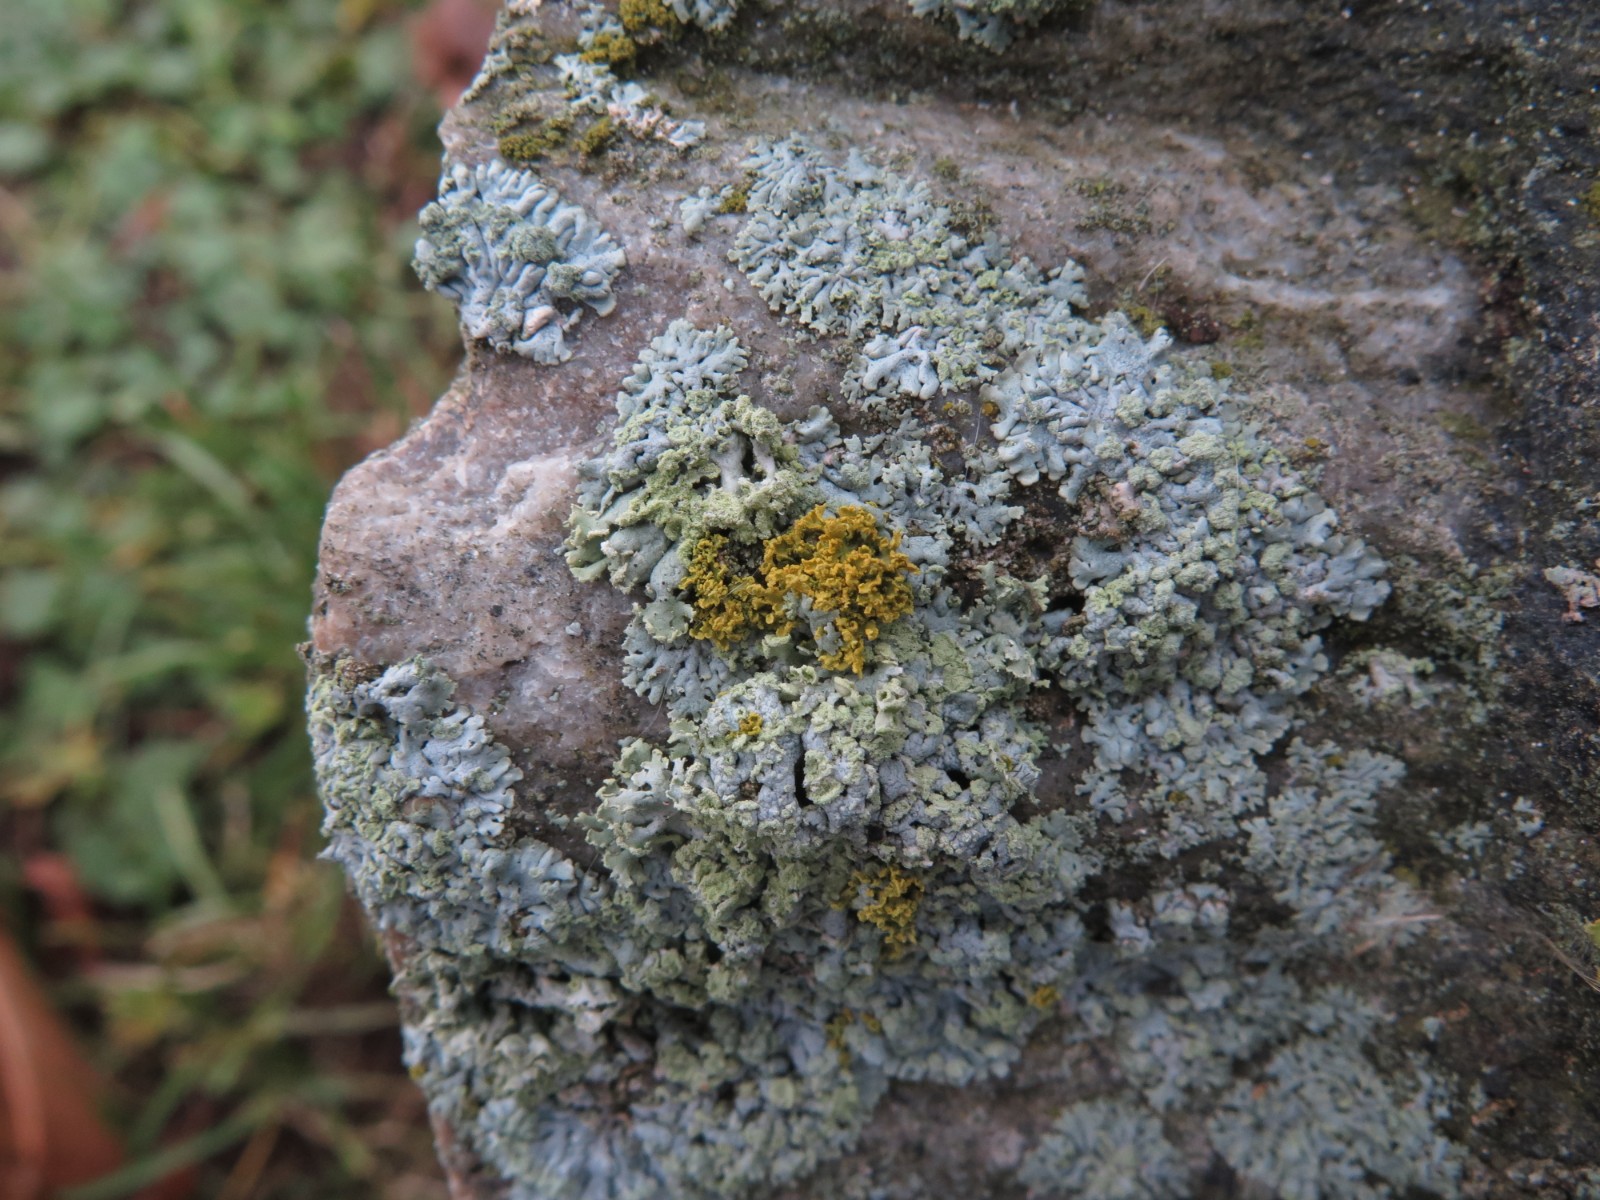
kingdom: Fungi
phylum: Ascomycota
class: Lecanoromycetes
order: Caliciales
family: Physciaceae
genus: Physcia
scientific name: Physcia tenella
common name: spæd rosetlav
